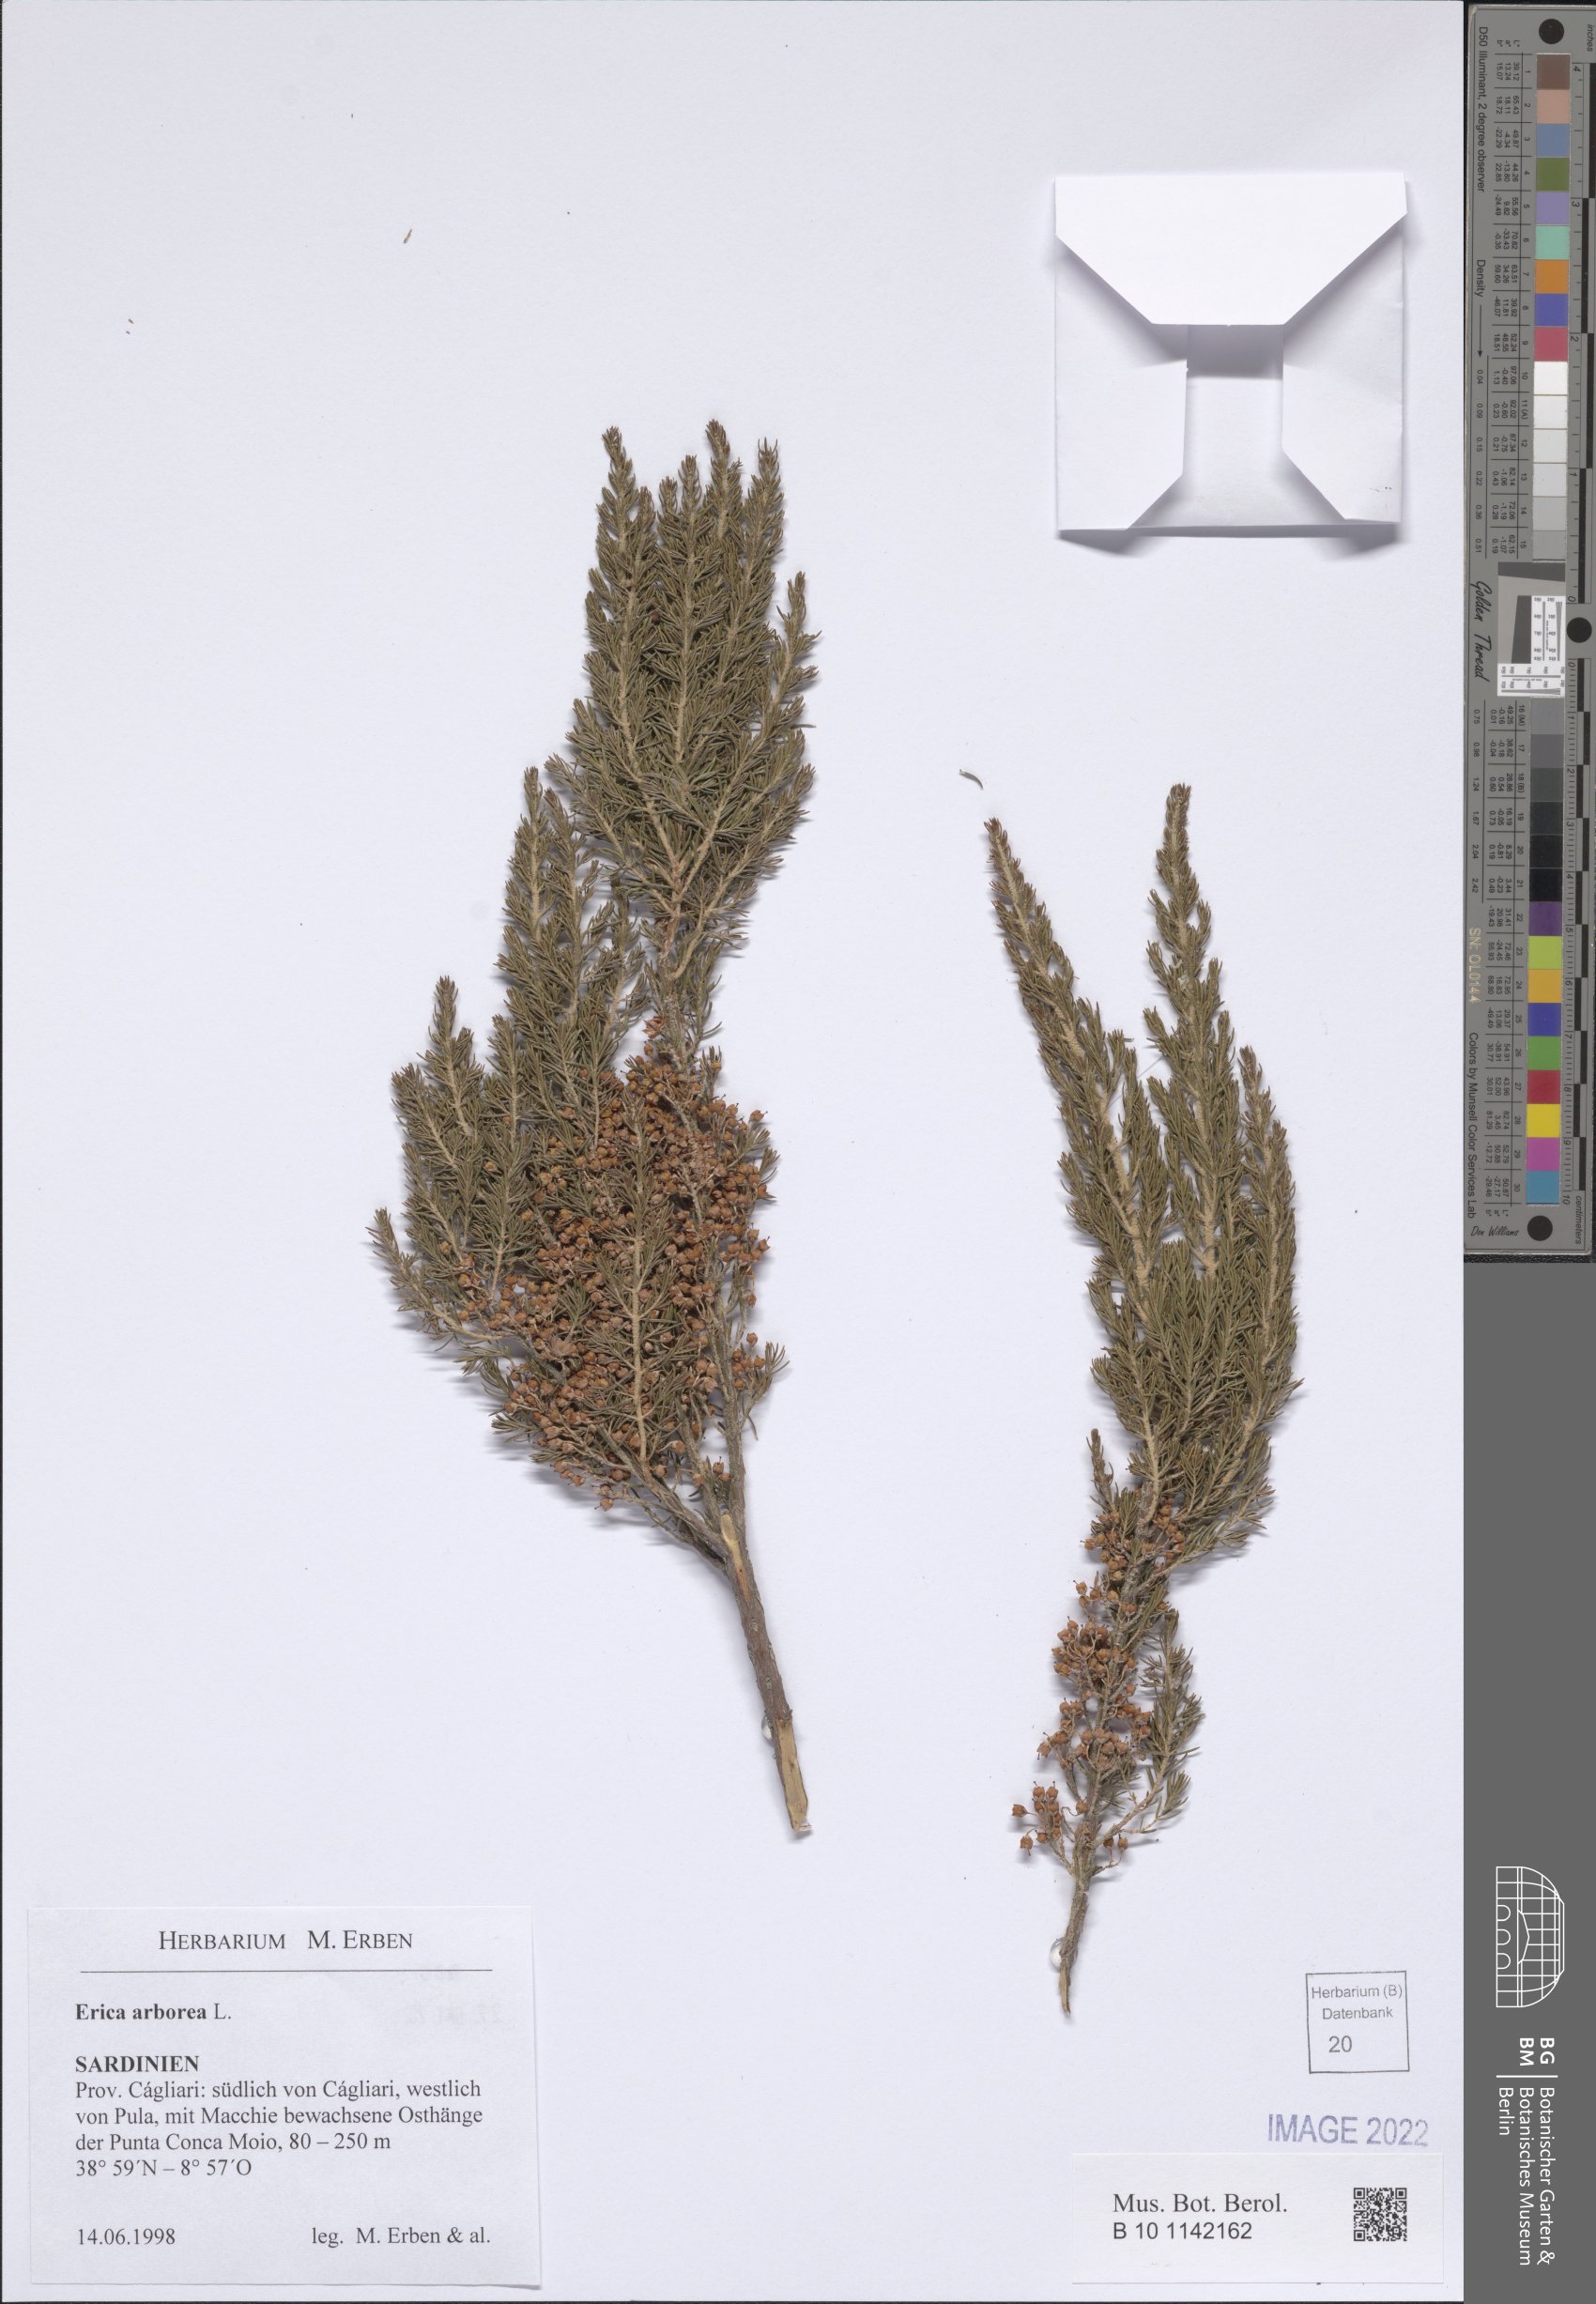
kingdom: Plantae
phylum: Tracheophyta
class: Magnoliopsida
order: Ericales
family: Ericaceae
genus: Erica
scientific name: Erica arborea
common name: Tree heath
